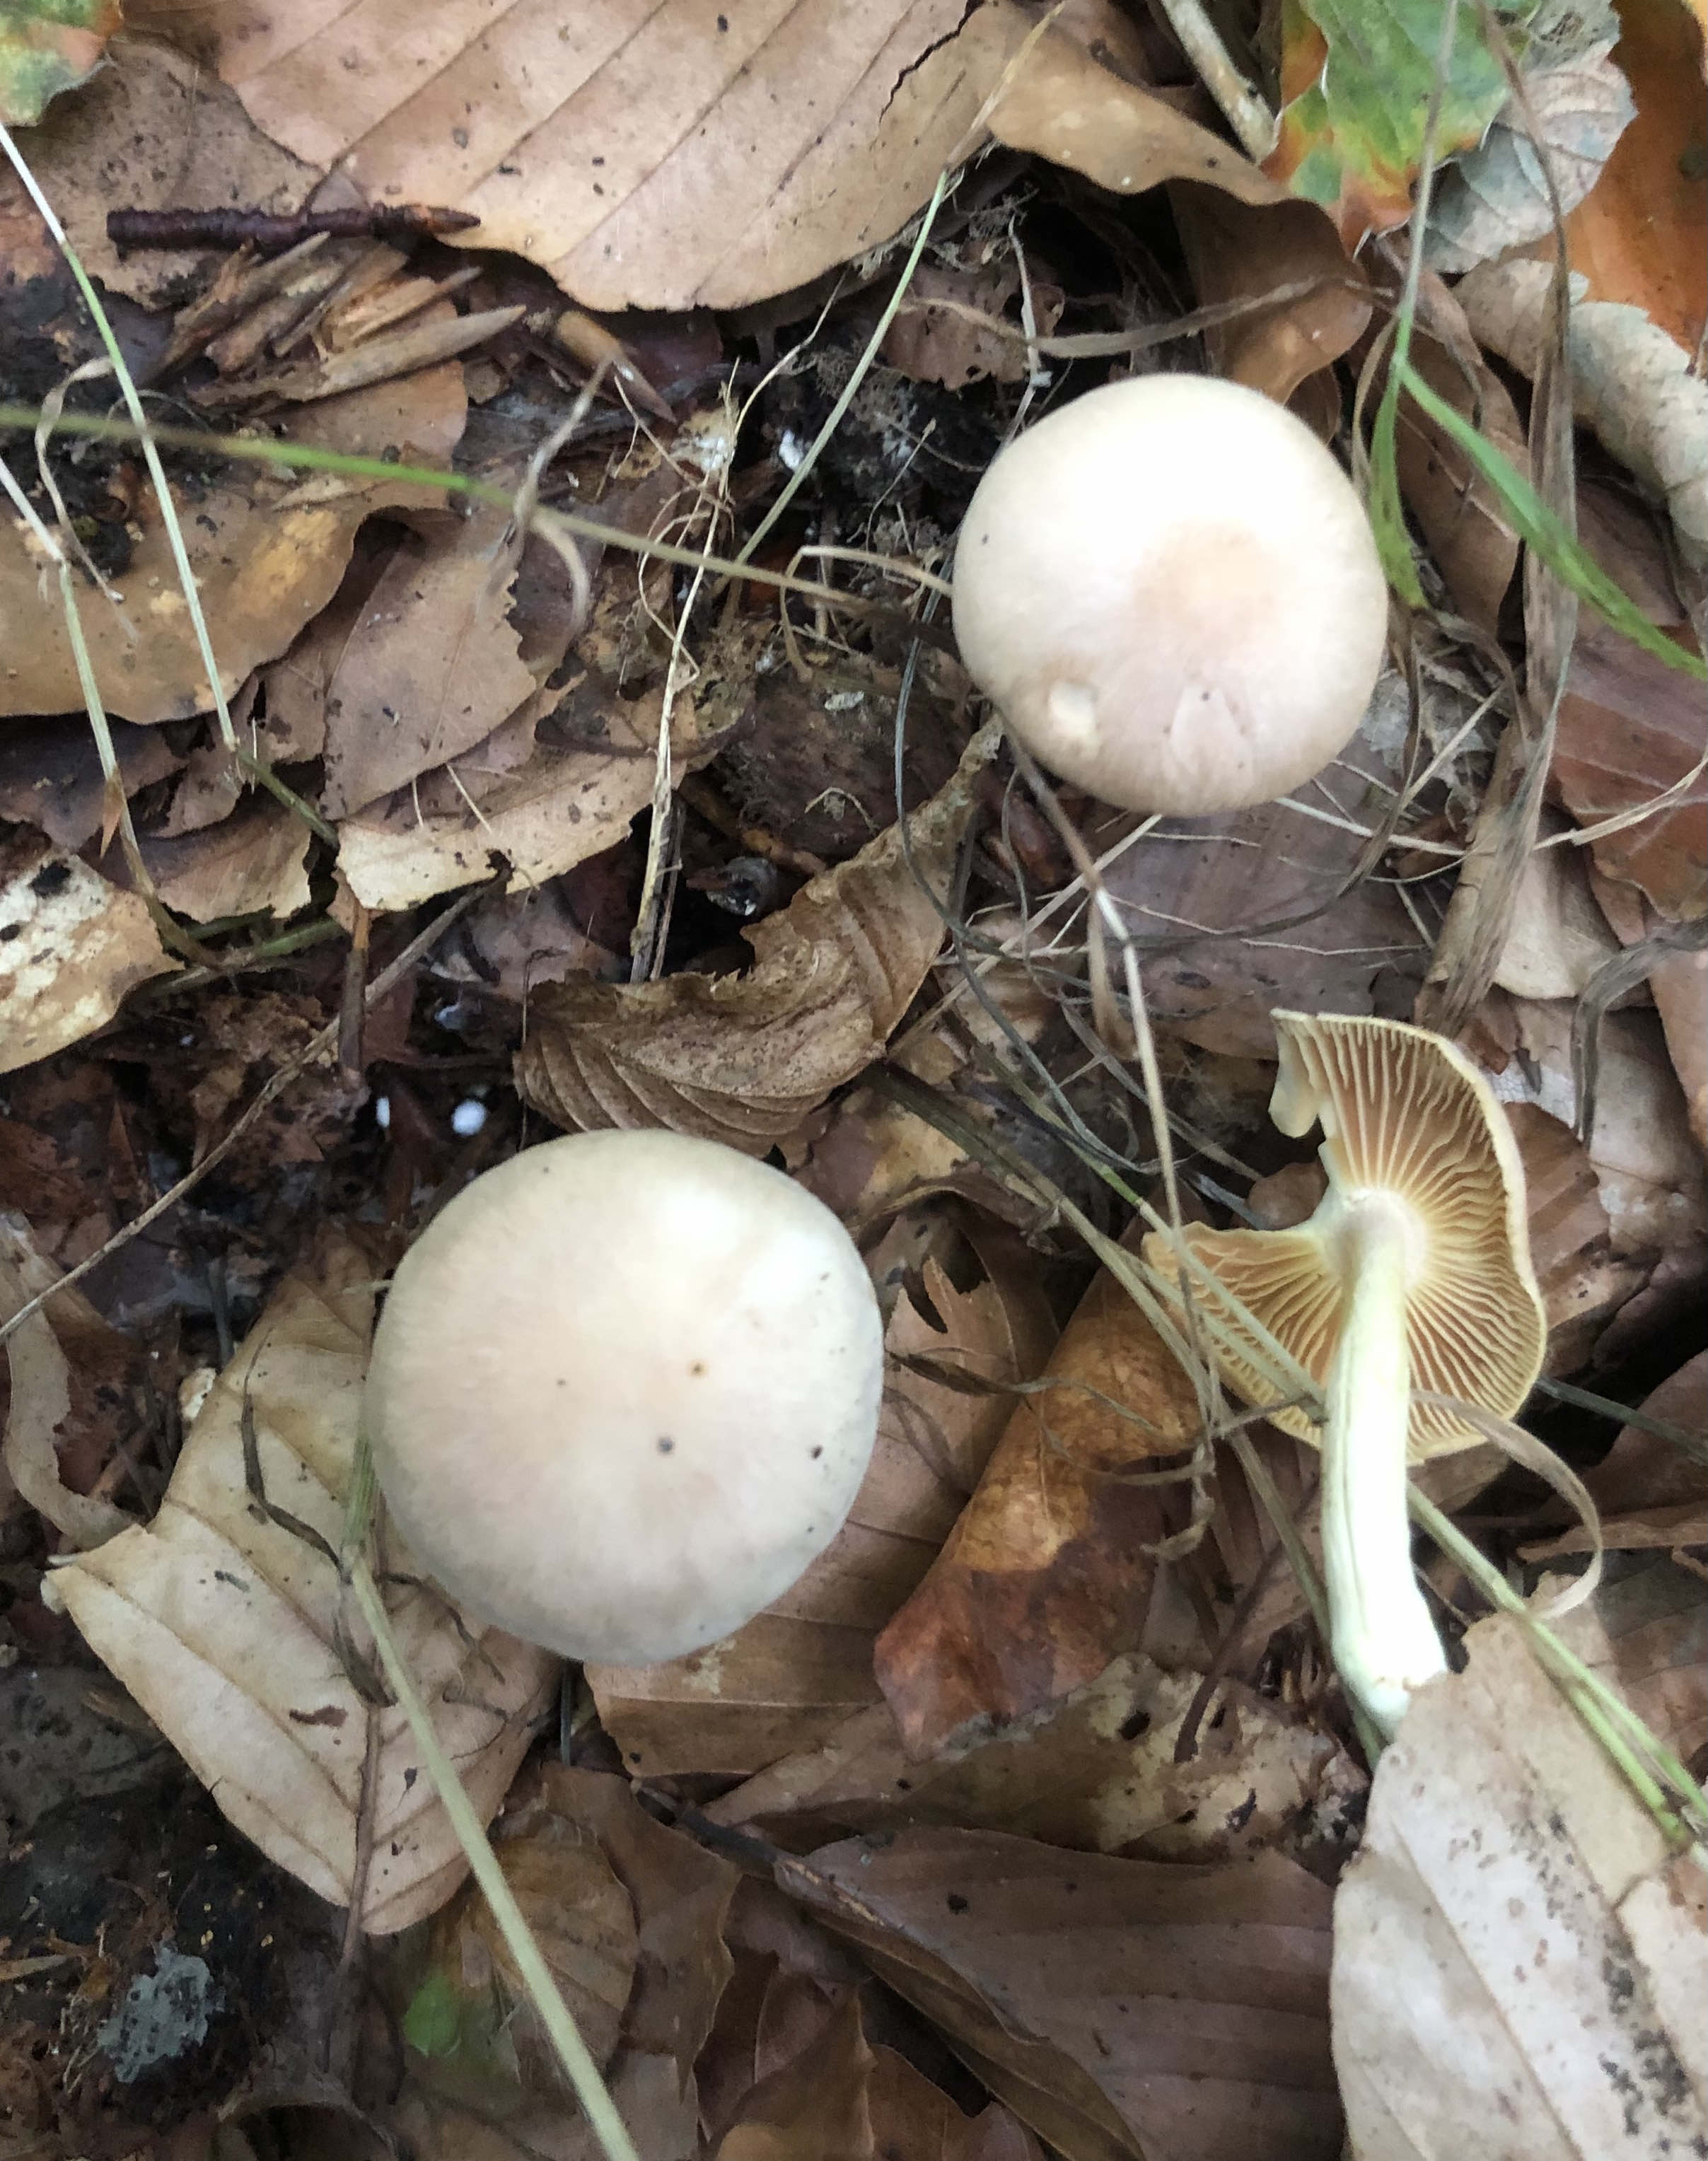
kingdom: Fungi
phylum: Basidiomycota
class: Agaricomycetes
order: Agaricales
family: Omphalotaceae
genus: Collybiopsis
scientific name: Collybiopsis peronata
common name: bestøvlet fladhat
